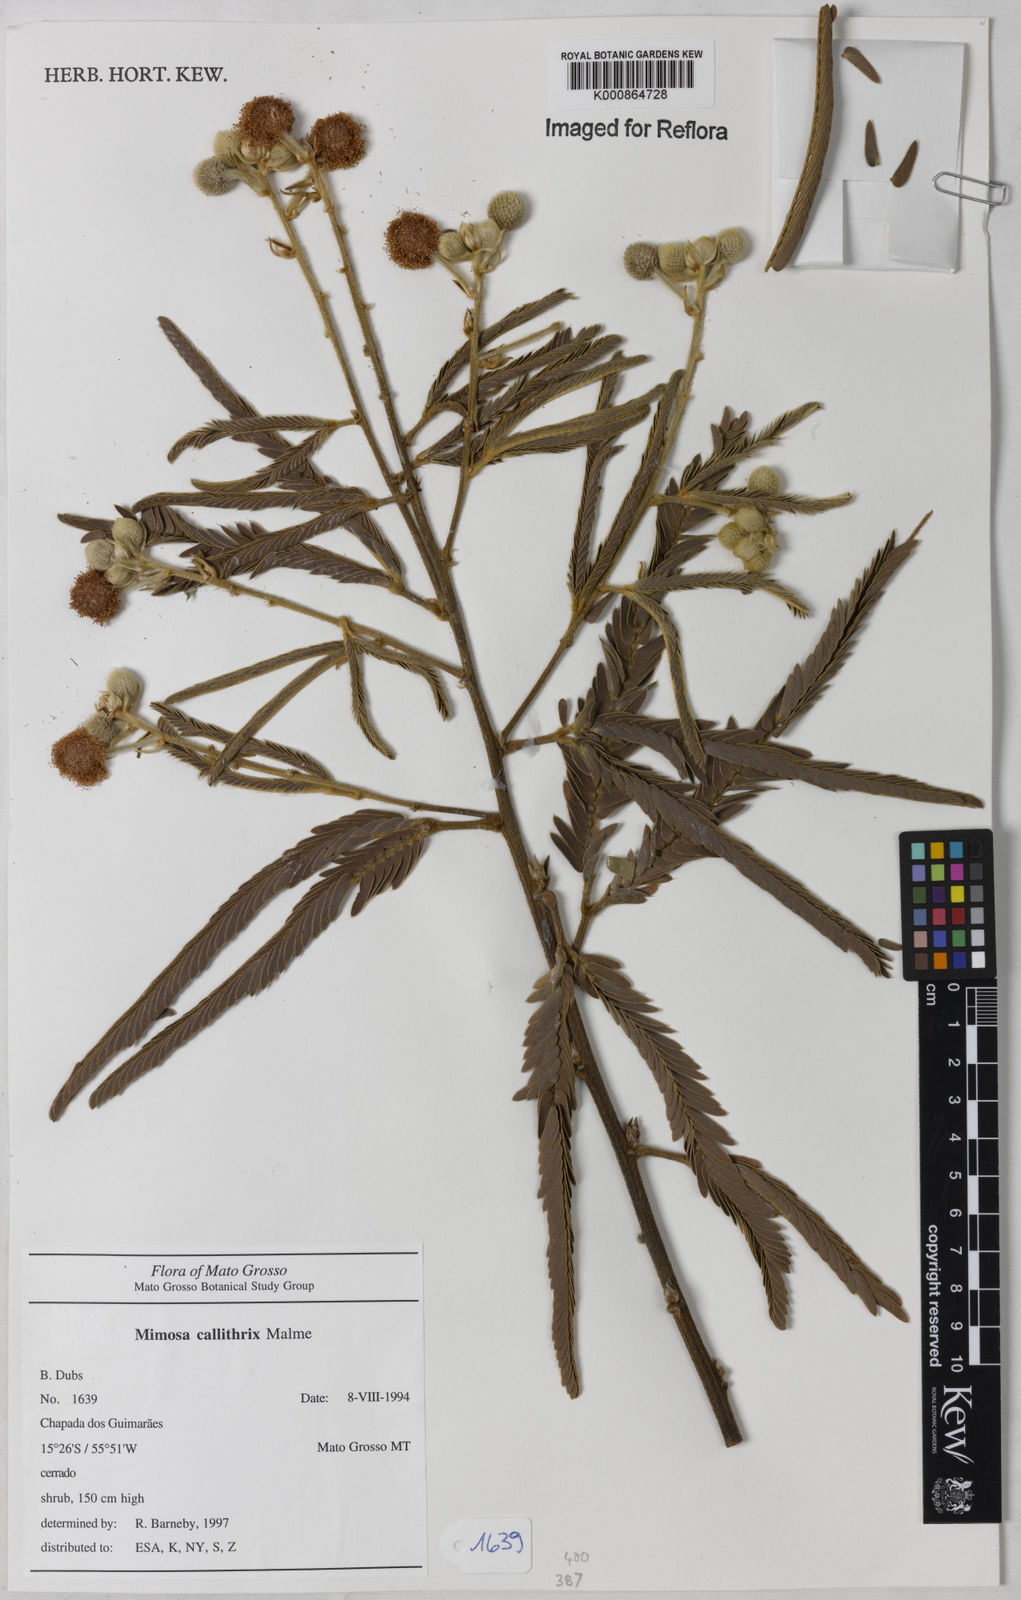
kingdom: Plantae
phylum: Tracheophyta
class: Magnoliopsida
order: Fabales
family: Fabaceae
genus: Mimosa
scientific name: Mimosa callithrix
